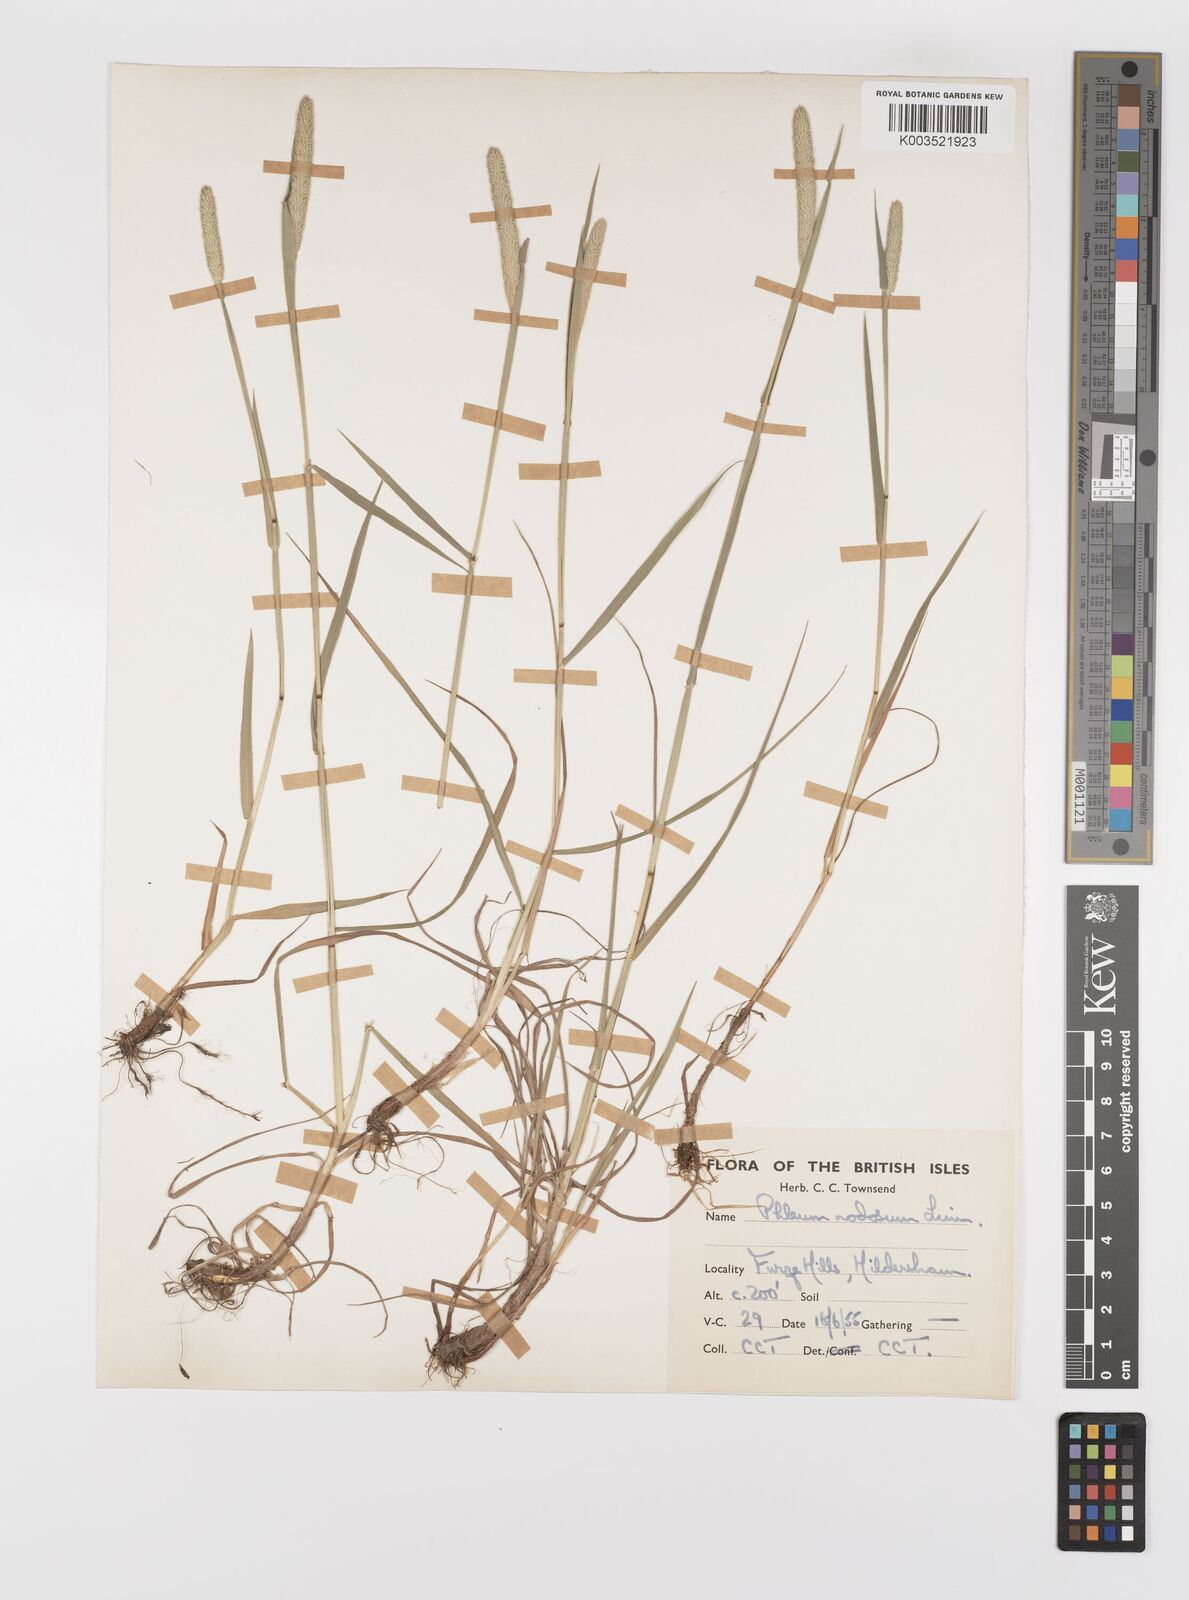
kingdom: Plantae
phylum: Tracheophyta
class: Liliopsida
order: Poales
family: Poaceae
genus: Phleum
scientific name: Phleum bertolonii
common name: Smaller cat's-tail
